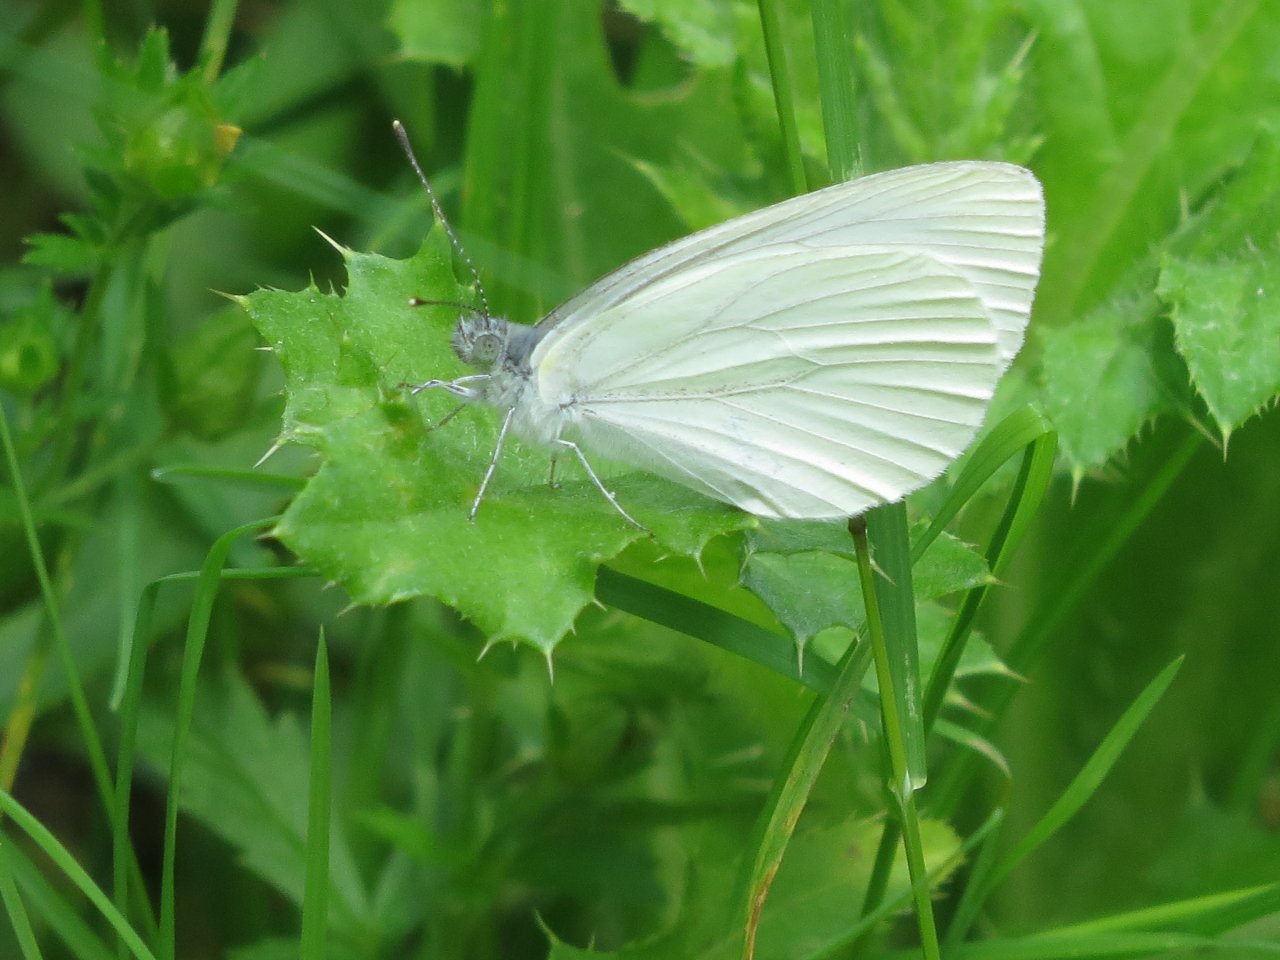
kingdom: Animalia
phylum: Arthropoda
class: Insecta
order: Lepidoptera
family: Pieridae
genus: Pieris
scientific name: Pieris oleracea
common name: Mustard White
